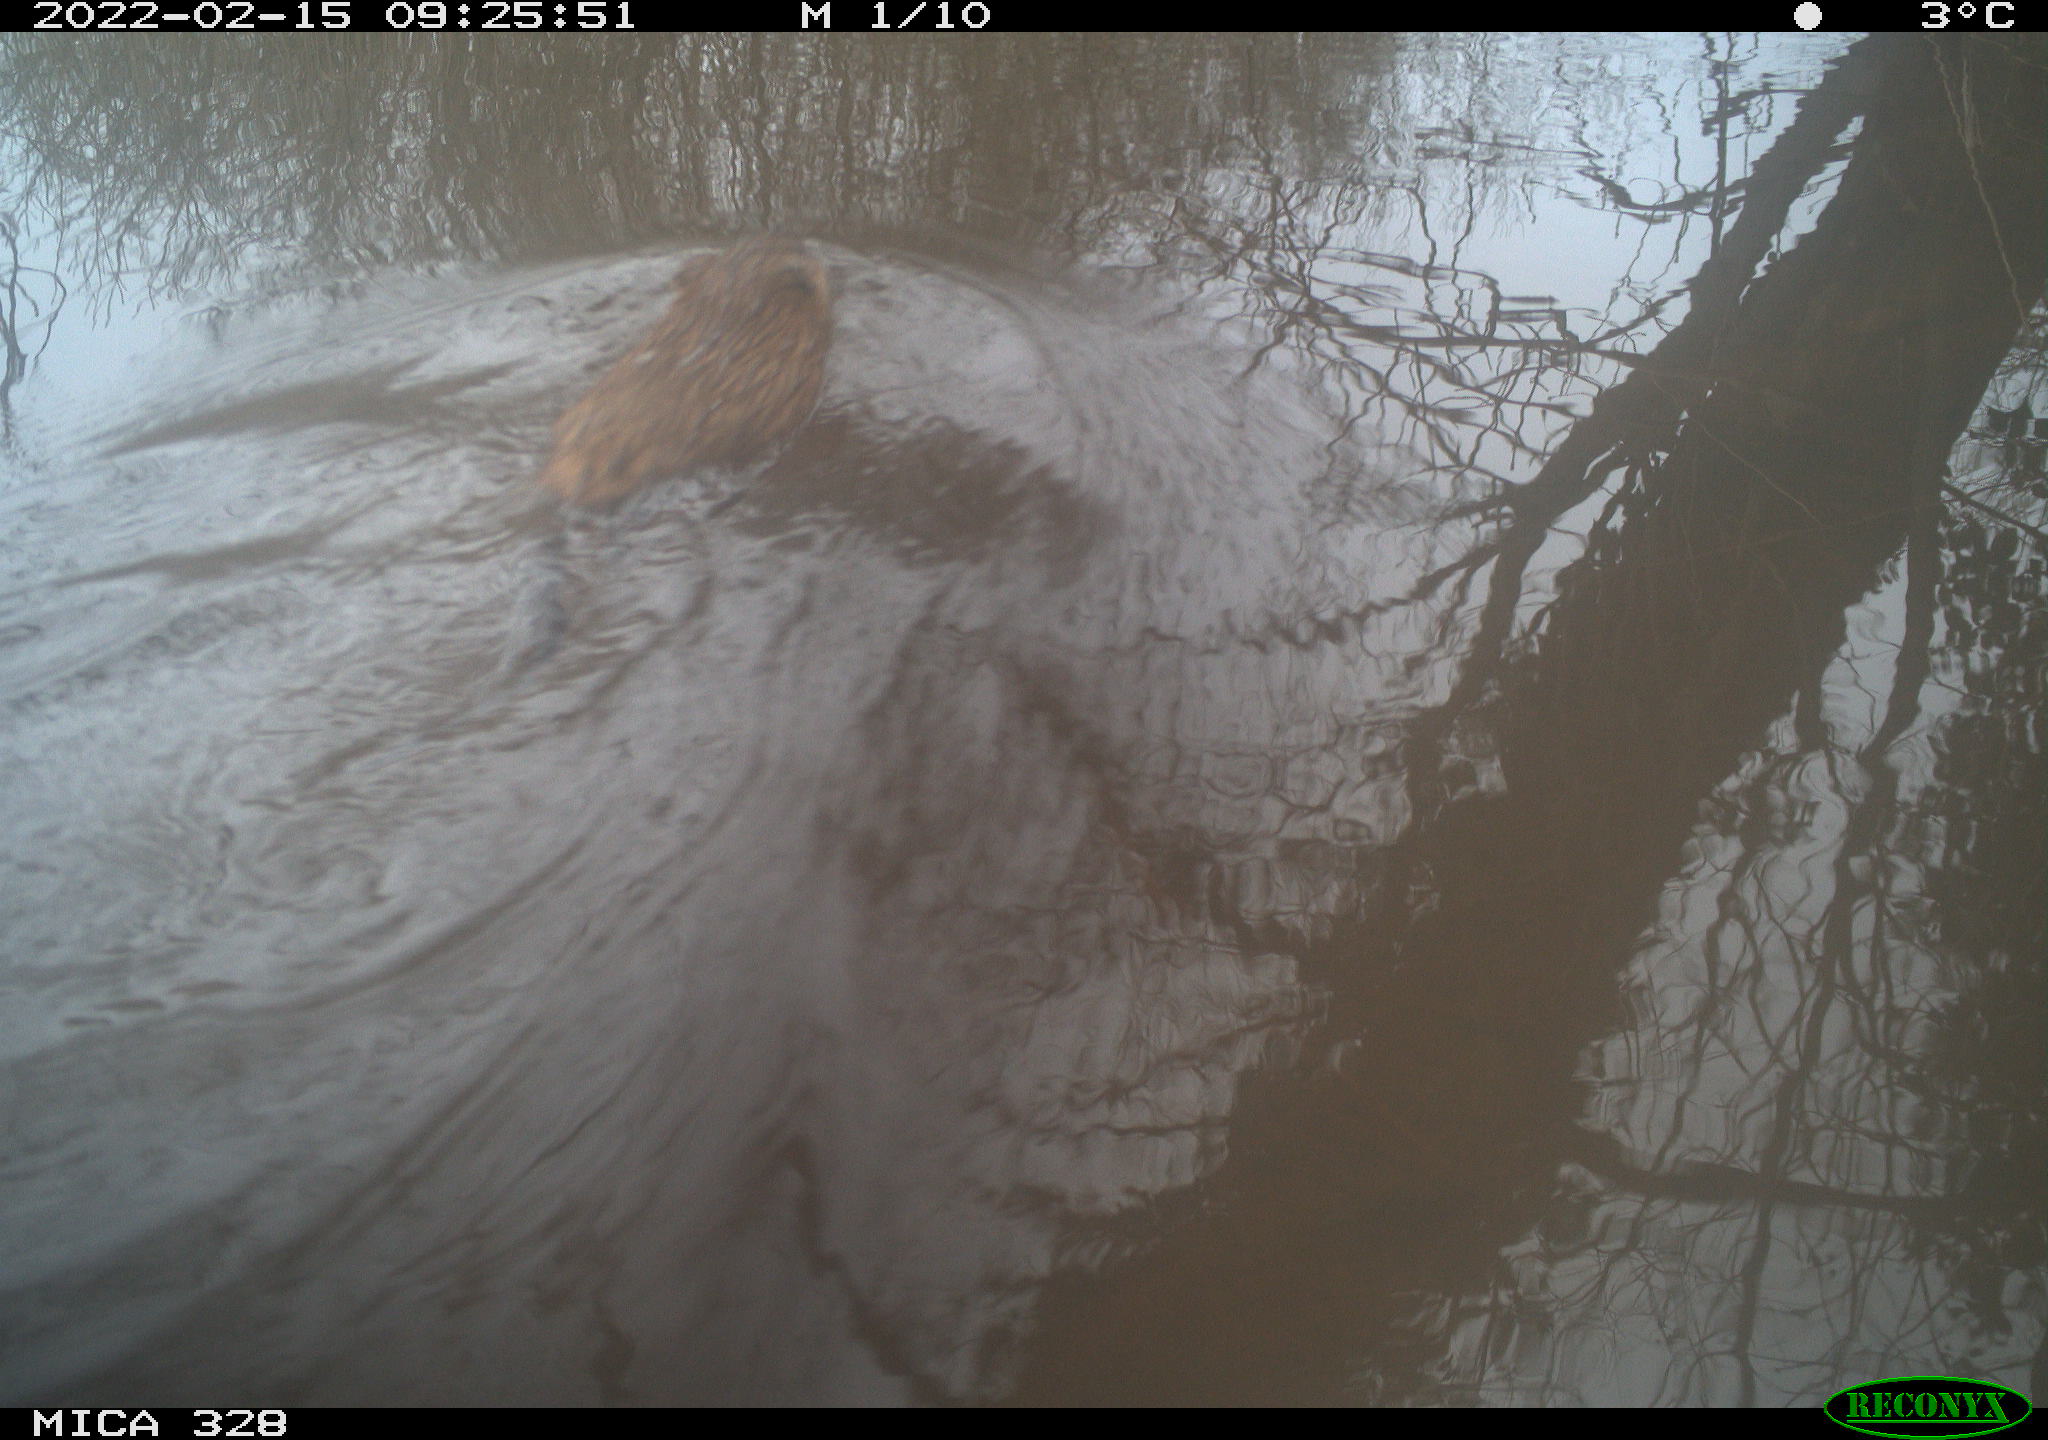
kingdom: Animalia
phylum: Chordata
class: Mammalia
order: Rodentia
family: Cricetidae
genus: Ondatra
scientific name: Ondatra zibethicus
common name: Muskrat
